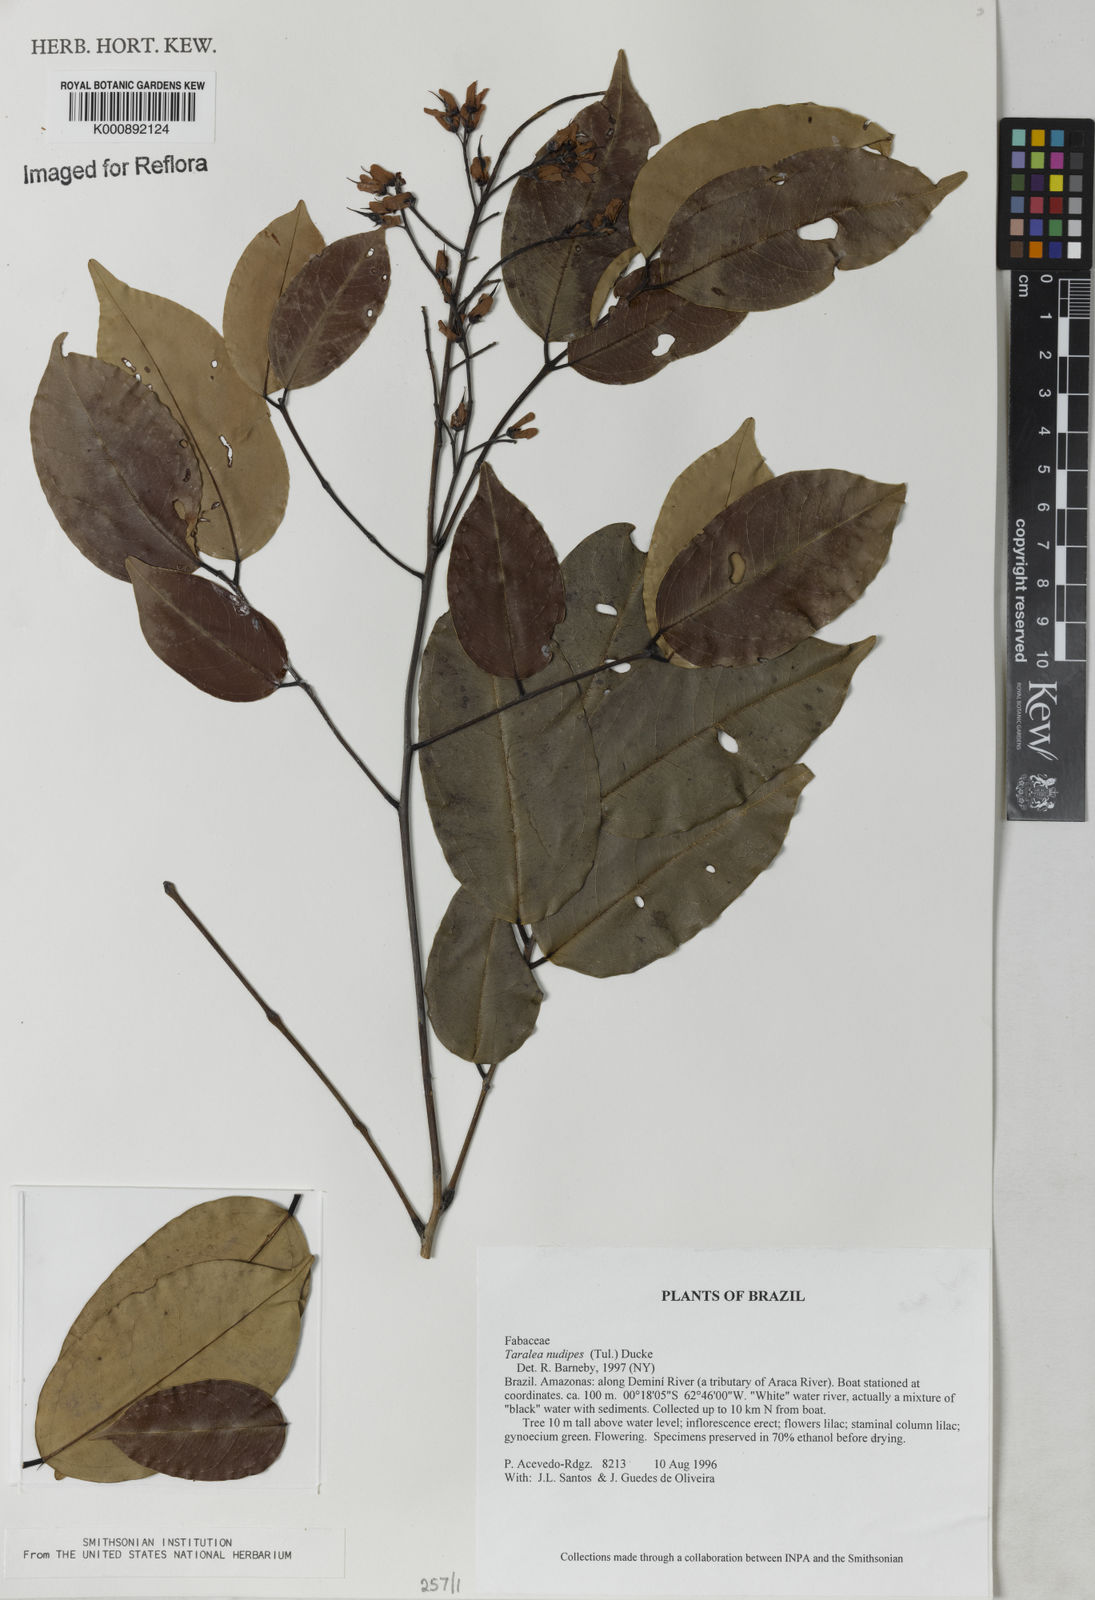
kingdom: Plantae
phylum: Tracheophyta
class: Magnoliopsida
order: Fabales
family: Fabaceae
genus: Taralea
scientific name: Taralea nudipes
